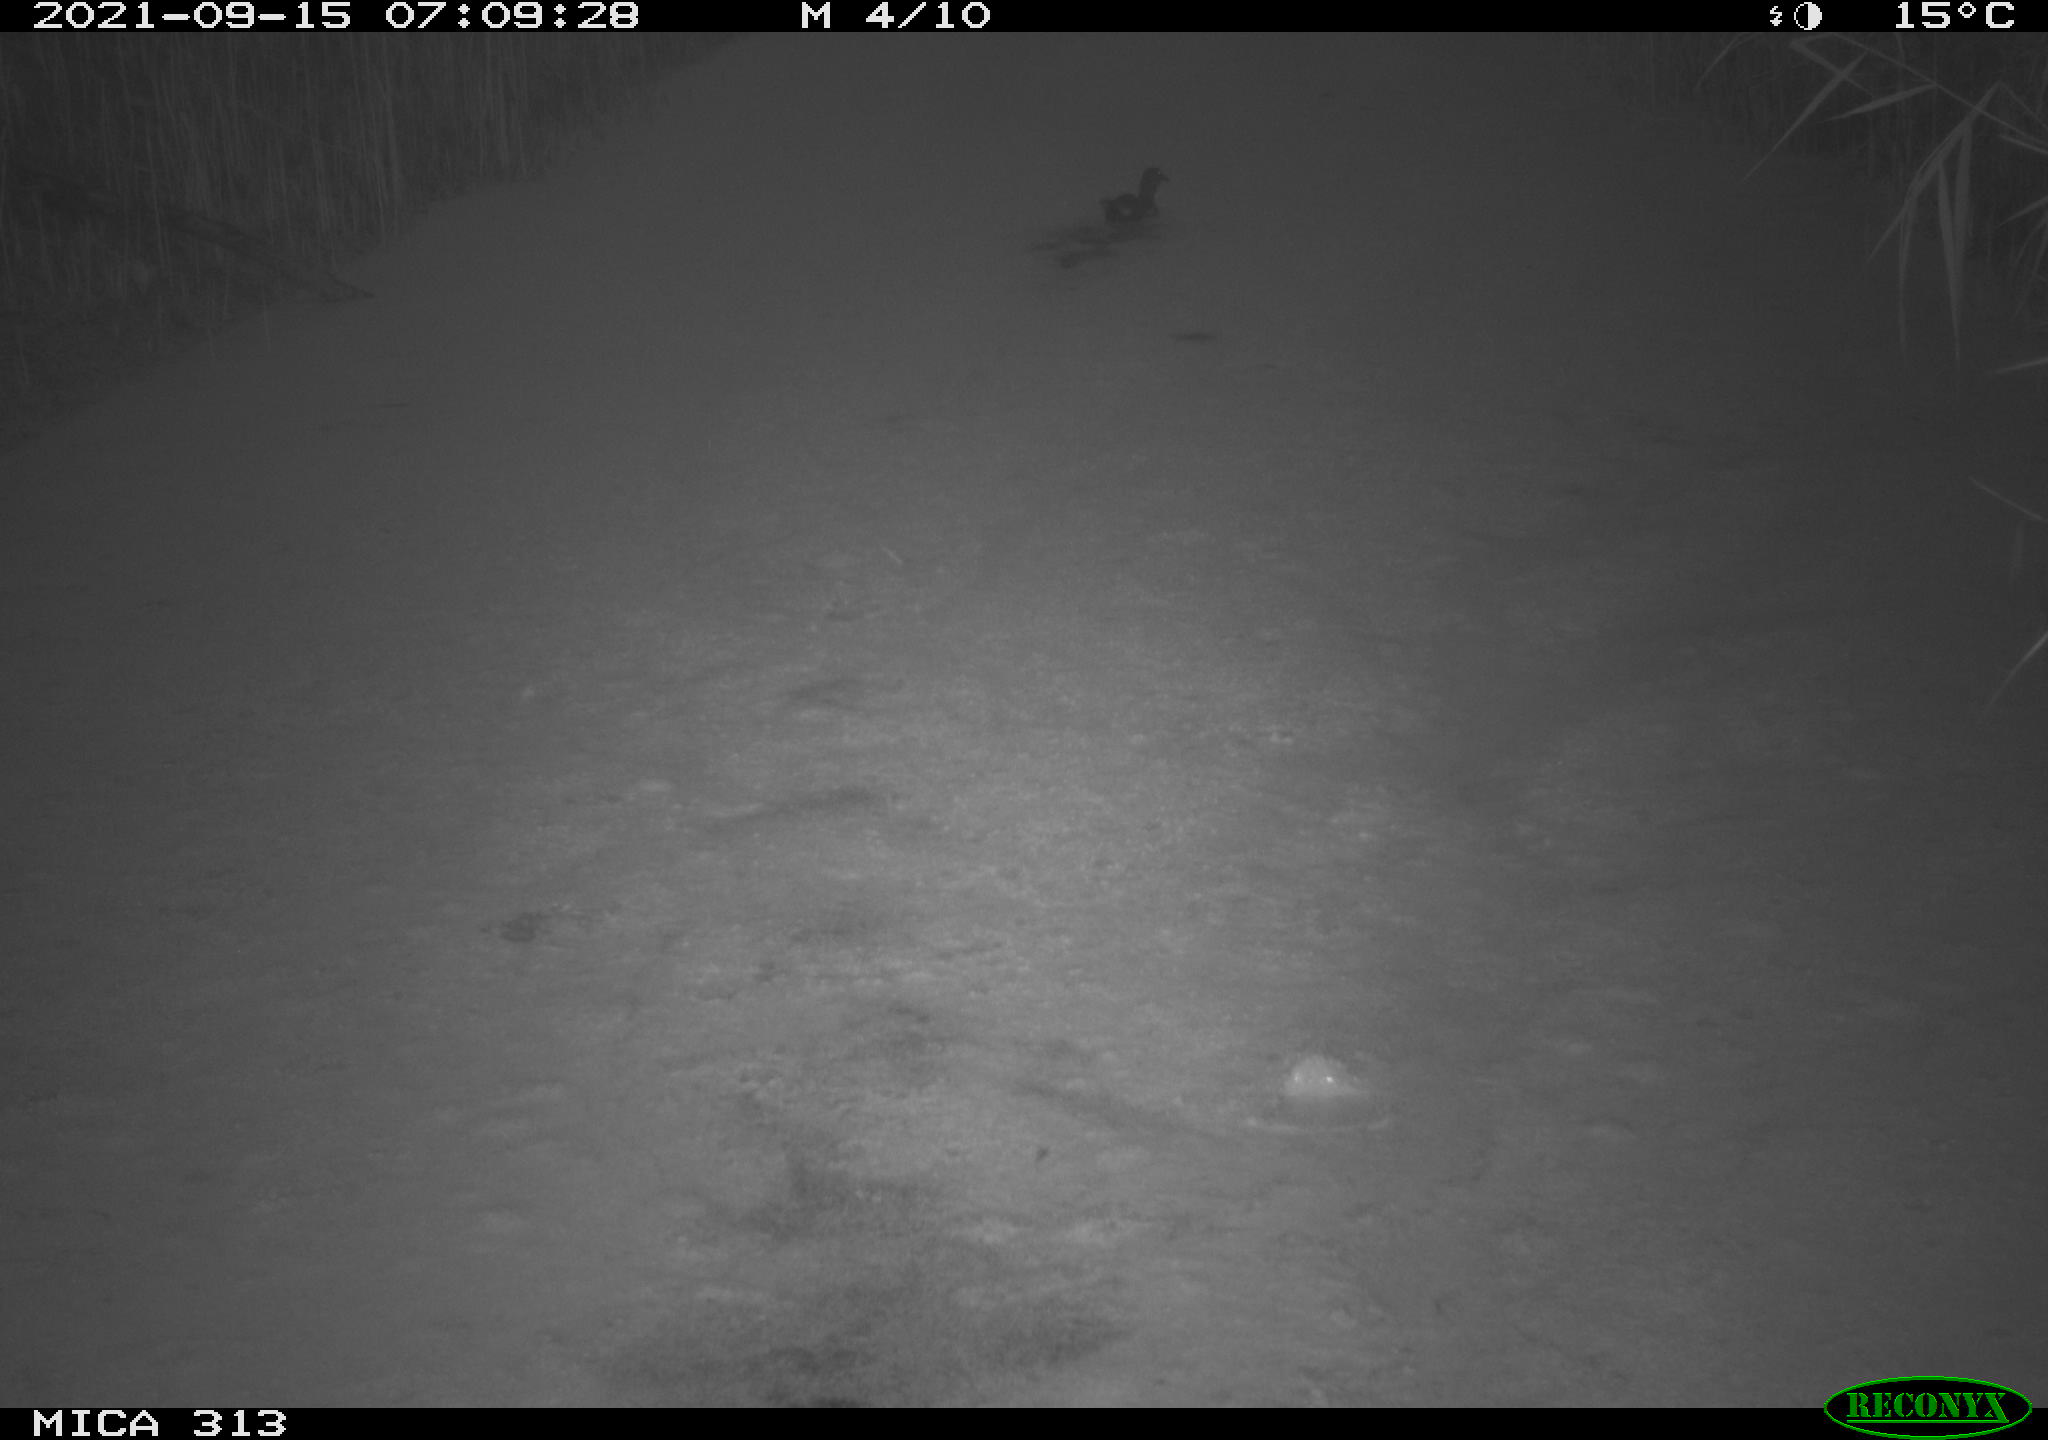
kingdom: Animalia
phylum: Chordata
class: Aves
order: Gruiformes
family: Rallidae
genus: Gallinula
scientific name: Gallinula chloropus
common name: Common moorhen
